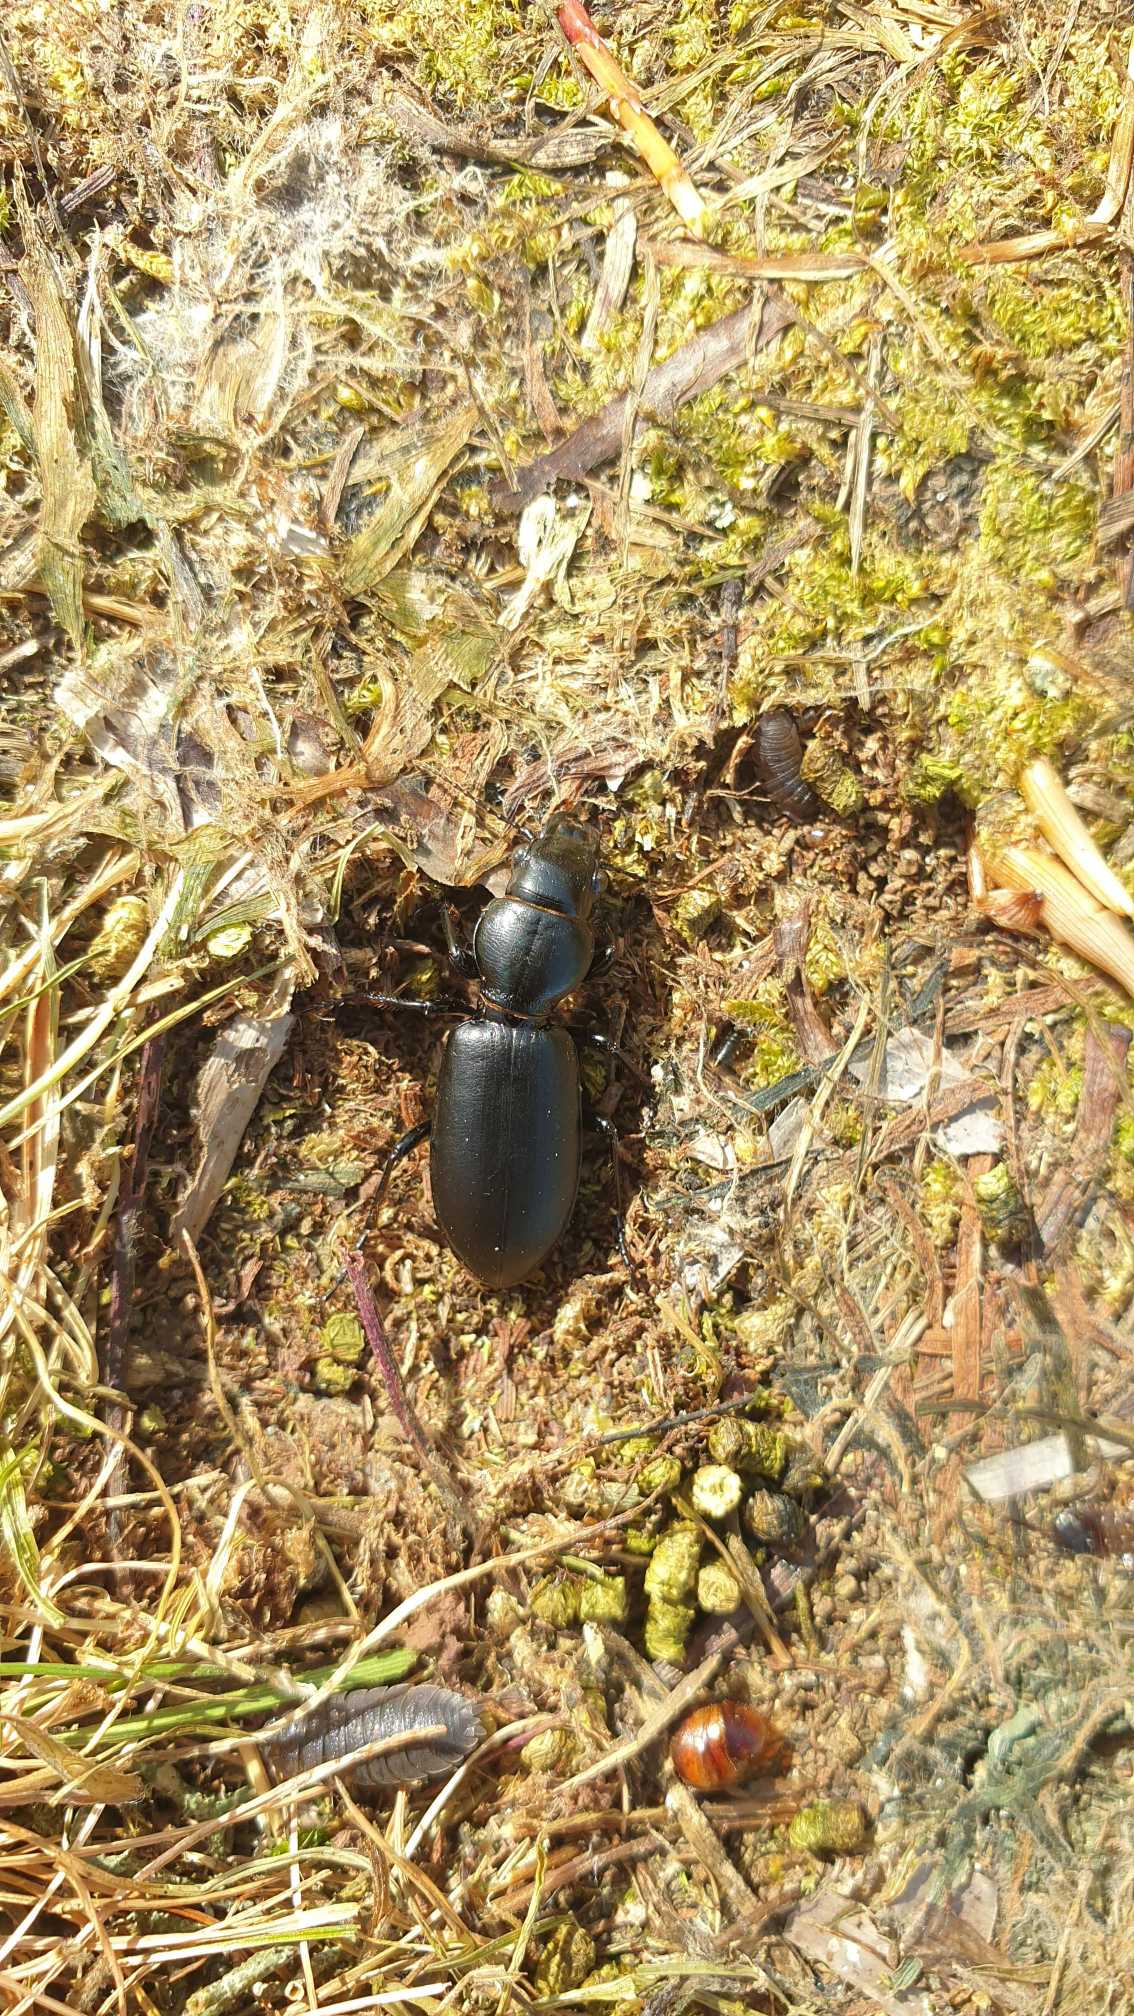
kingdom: Animalia
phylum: Arthropoda
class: Insecta
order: Coleoptera
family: Carabidae
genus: Broscus
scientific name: Broscus cephalotes
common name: Sandgraver
